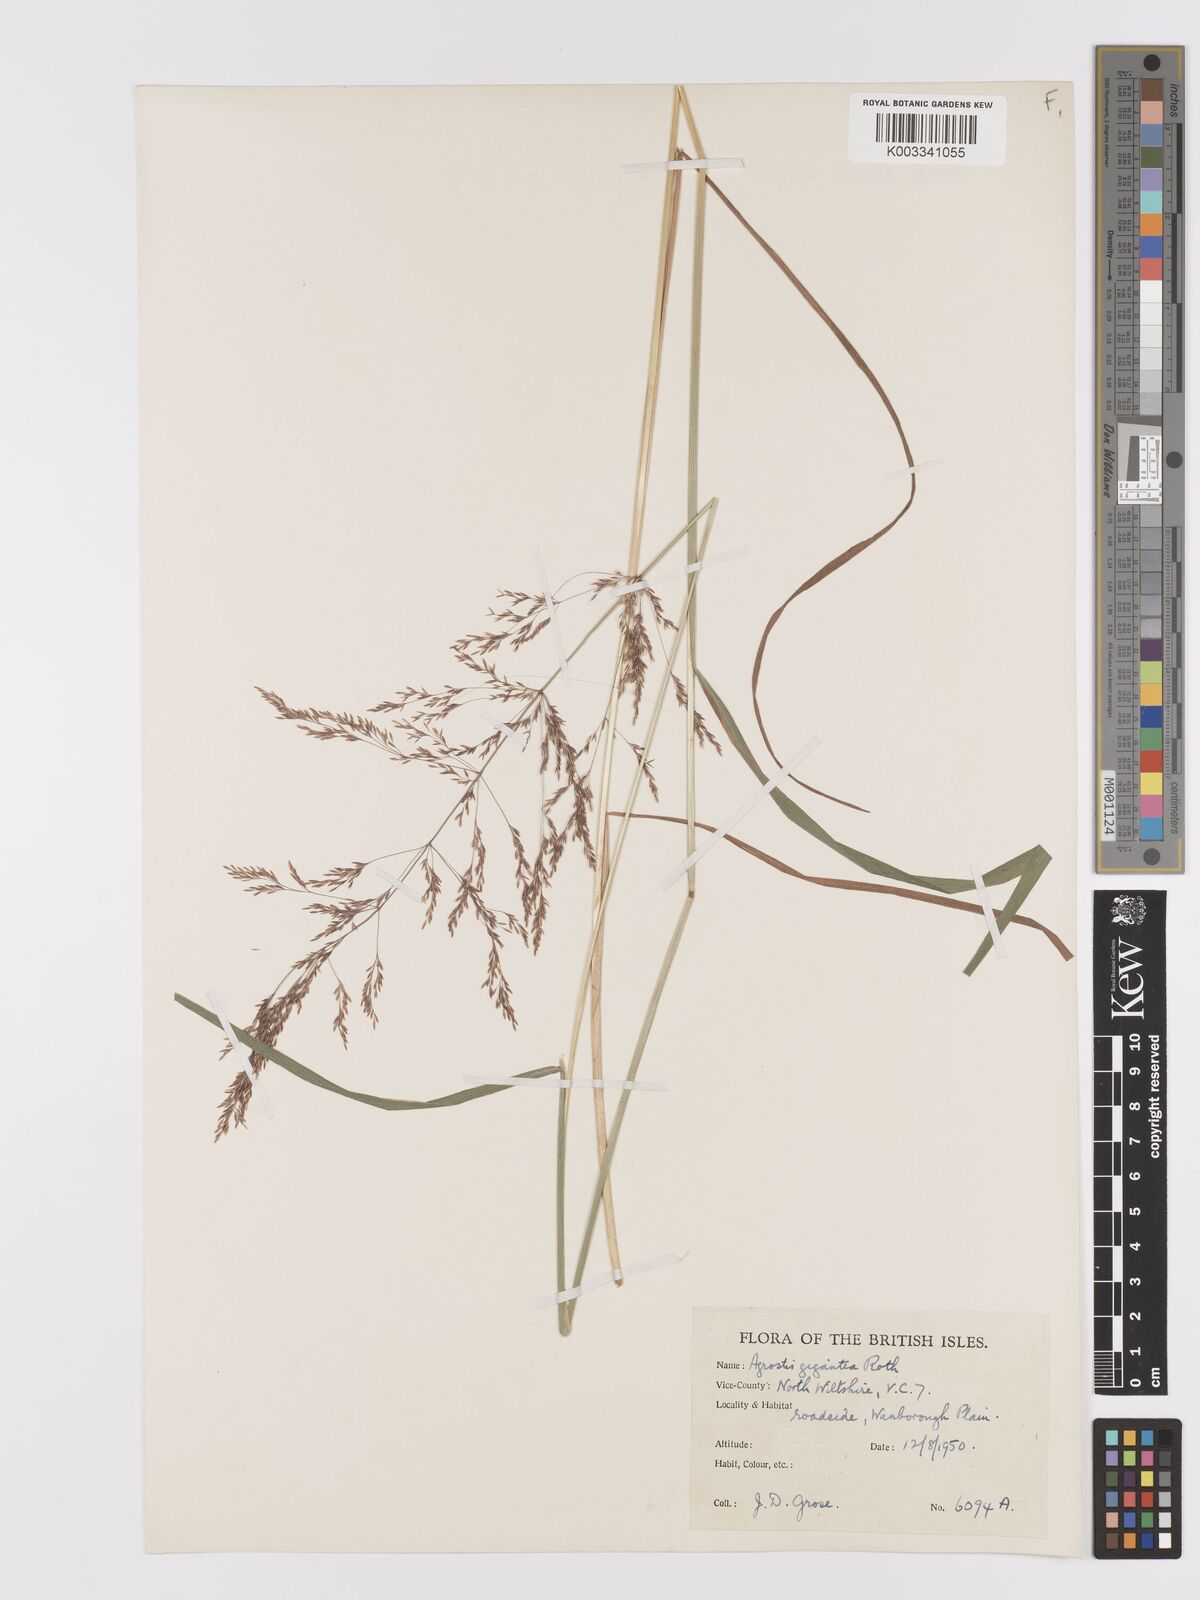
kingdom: Plantae
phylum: Tracheophyta
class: Liliopsida
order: Poales
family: Poaceae
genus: Agrostis
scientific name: Agrostis gigantea
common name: Black bent
